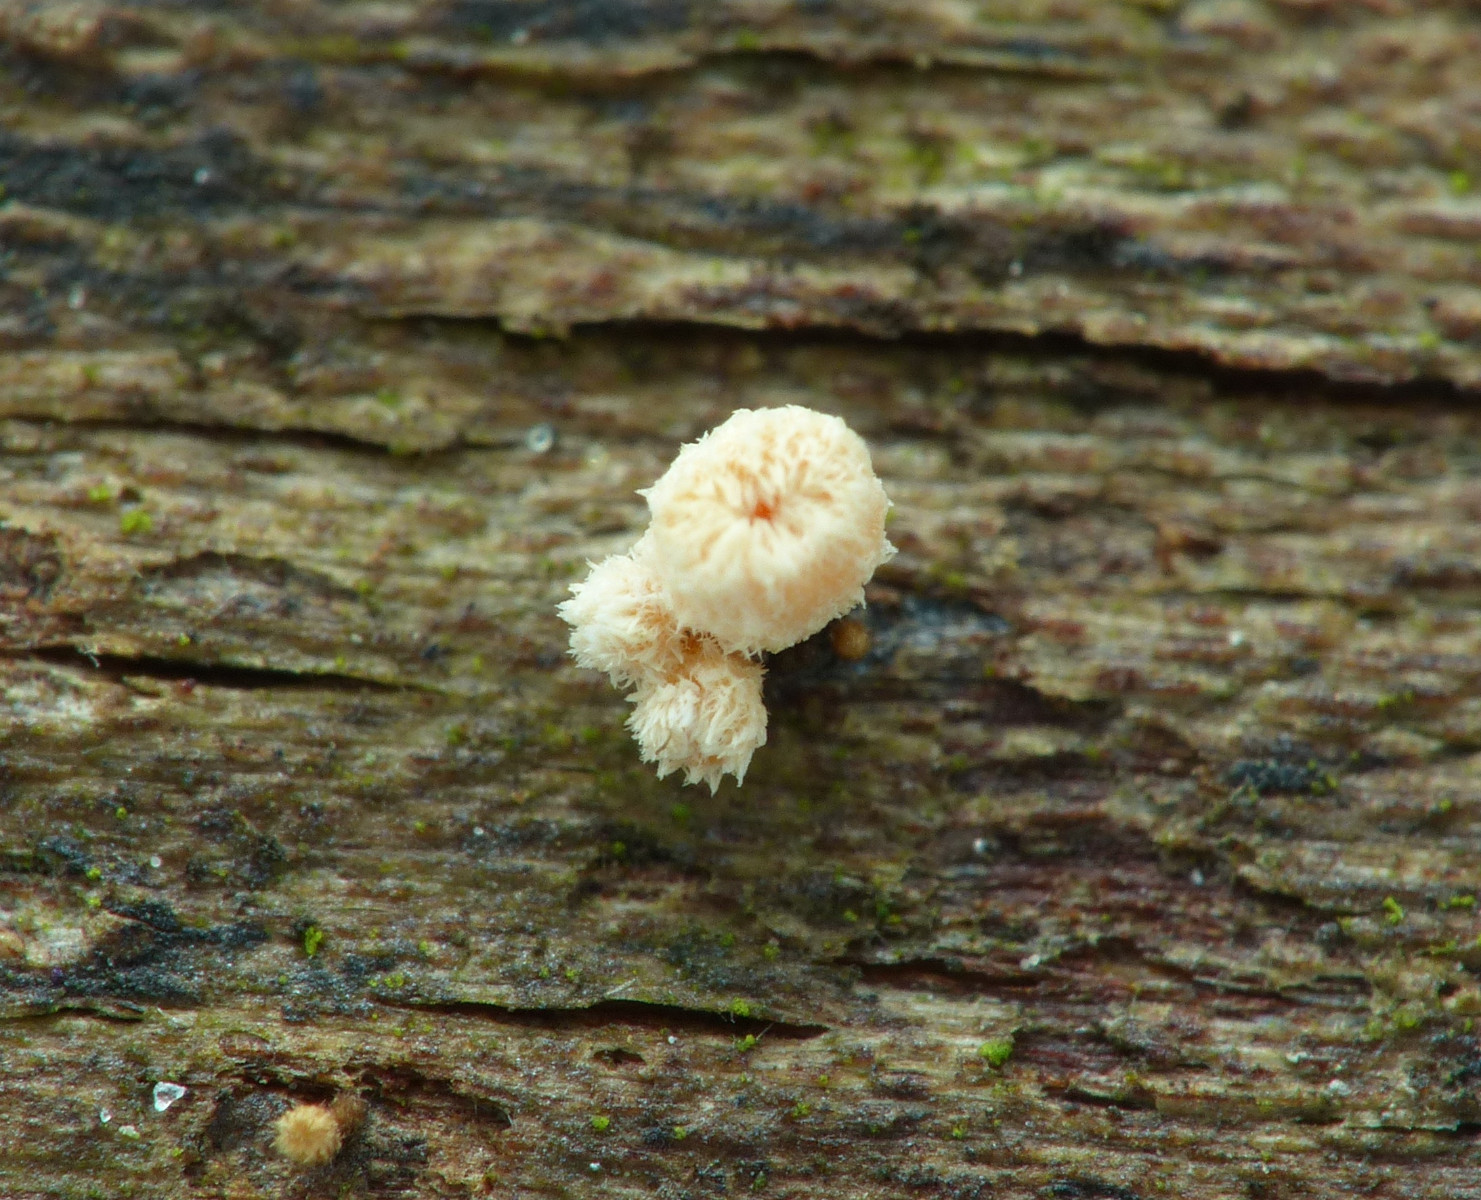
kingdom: Fungi
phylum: Ascomycota
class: Leotiomycetes
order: Helotiales
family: Lachnaceae
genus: Lachnellula
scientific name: Lachnellula
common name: frynseskive
